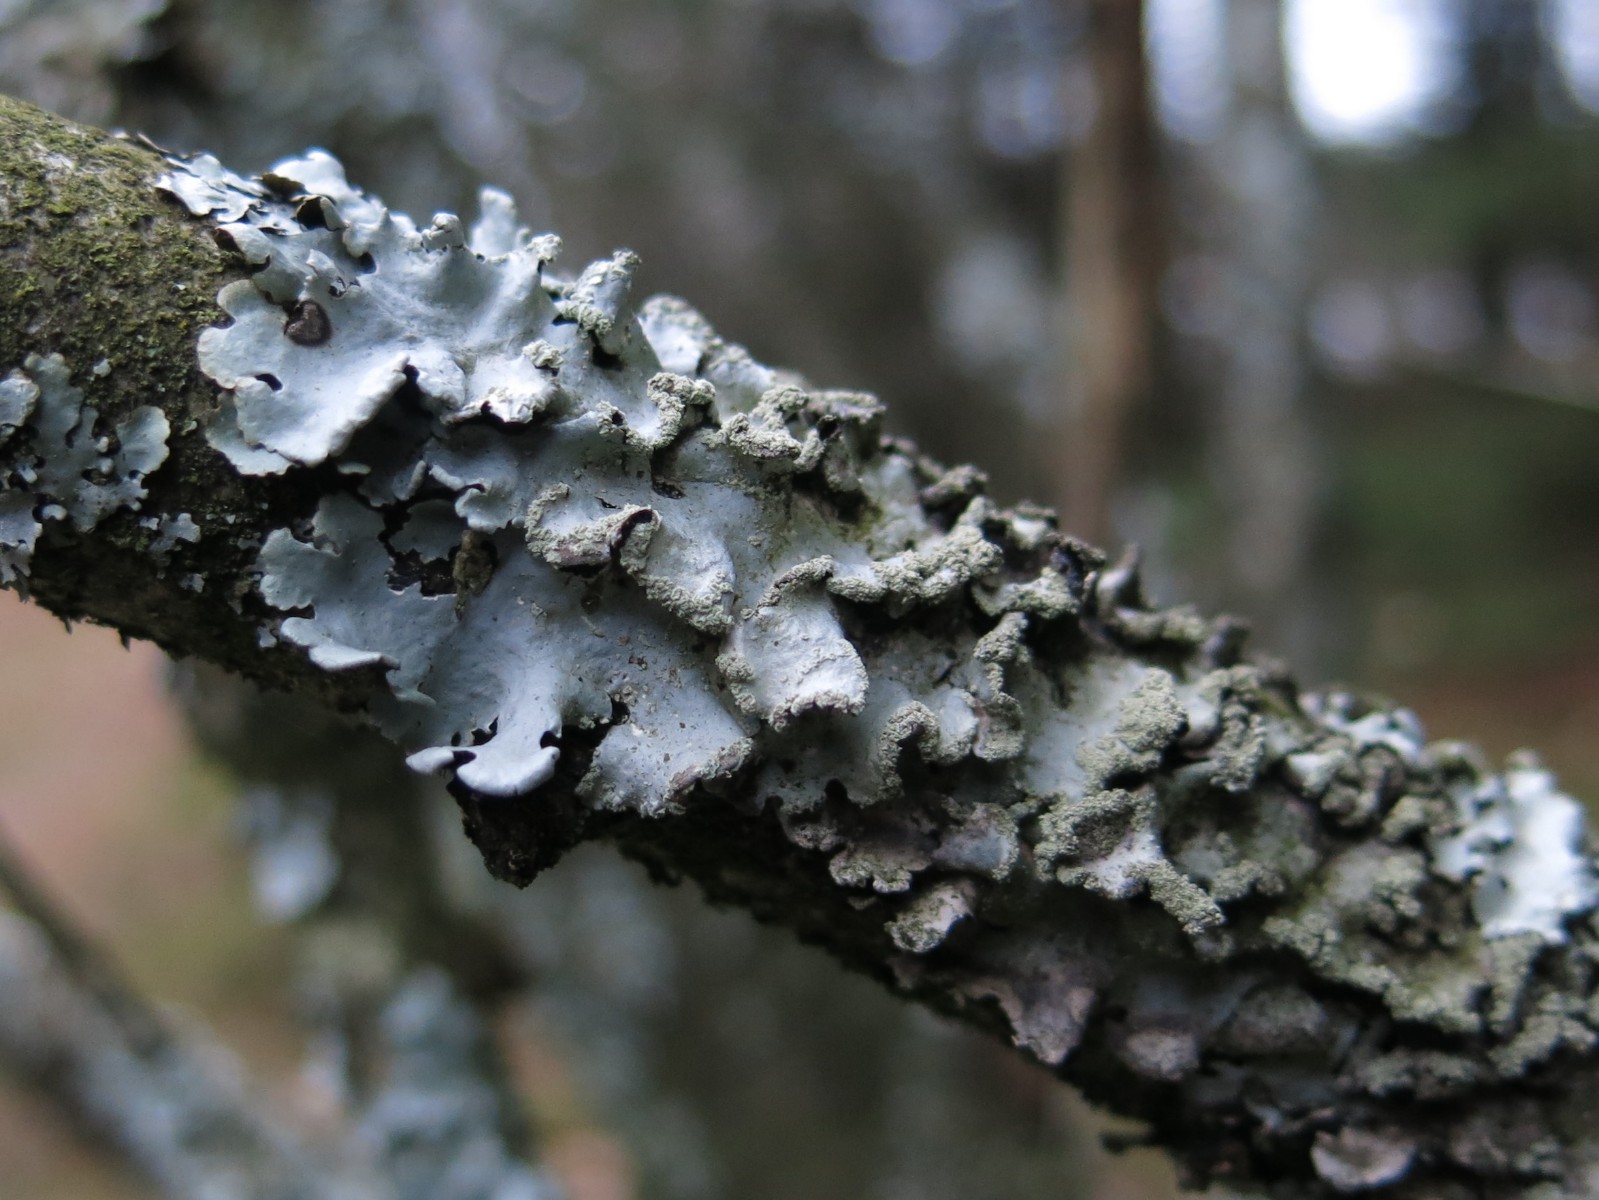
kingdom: Fungi
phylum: Ascomycota
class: Lecanoromycetes
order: Lecanorales
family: Parmeliaceae
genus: Hypotrachyna
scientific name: Hypotrachyna afrorevoluta
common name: kyst-skållav
